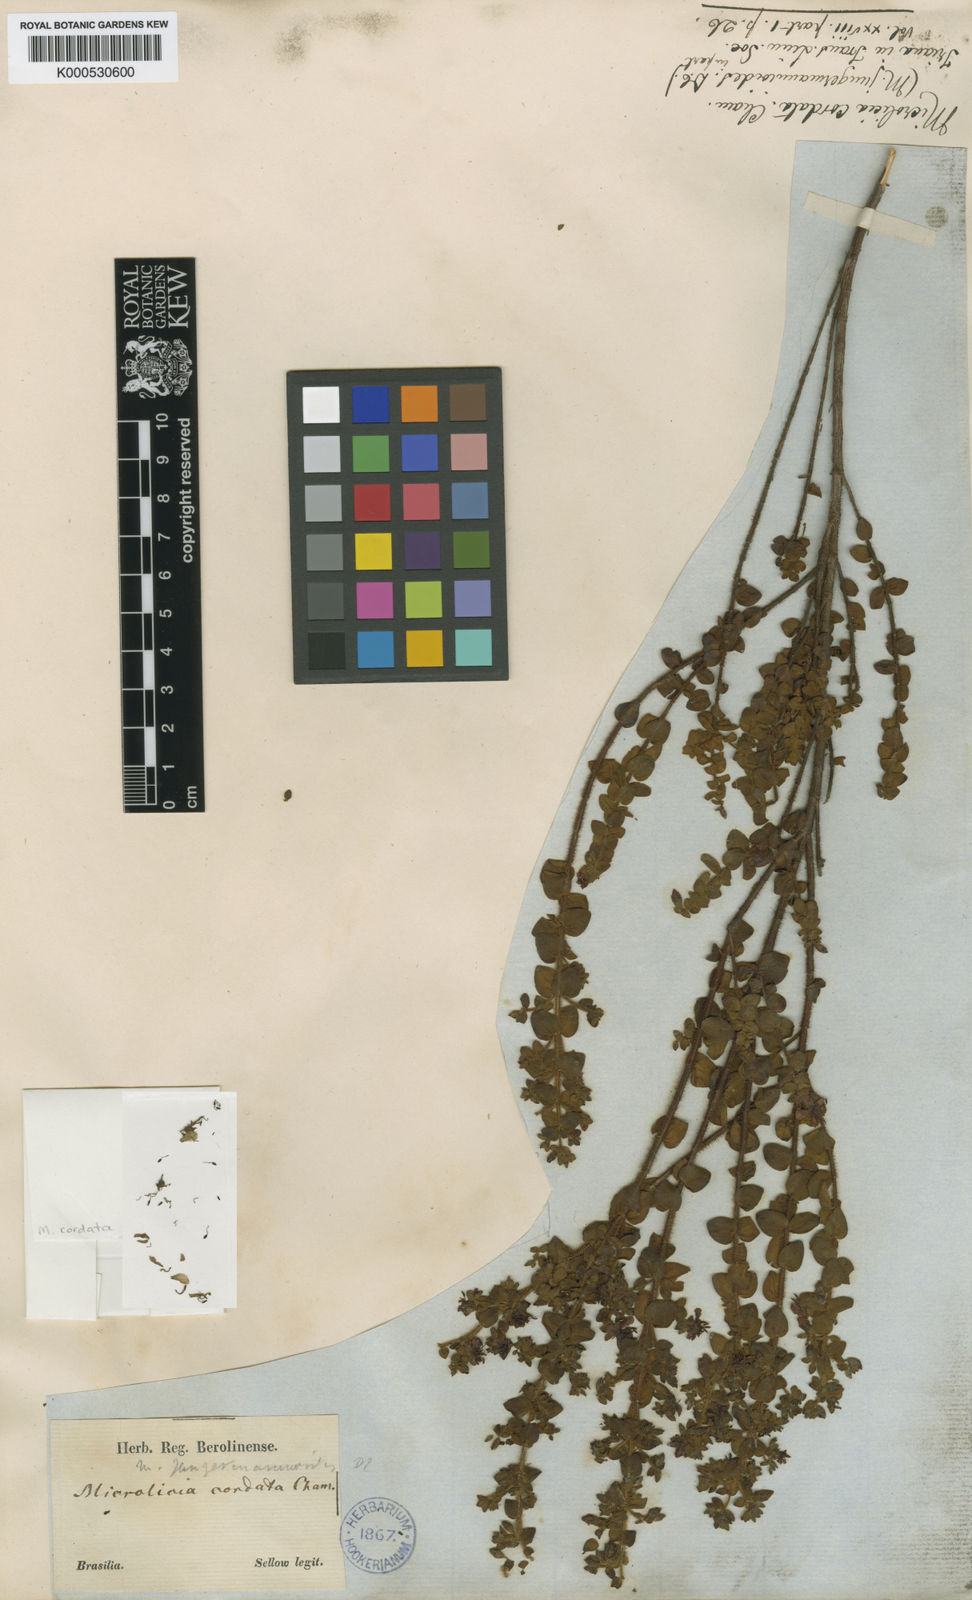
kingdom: Plantae
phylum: Tracheophyta
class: Magnoliopsida
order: Myrtales
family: Melastomataceae
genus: Microlicia
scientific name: Microlicia cordata
